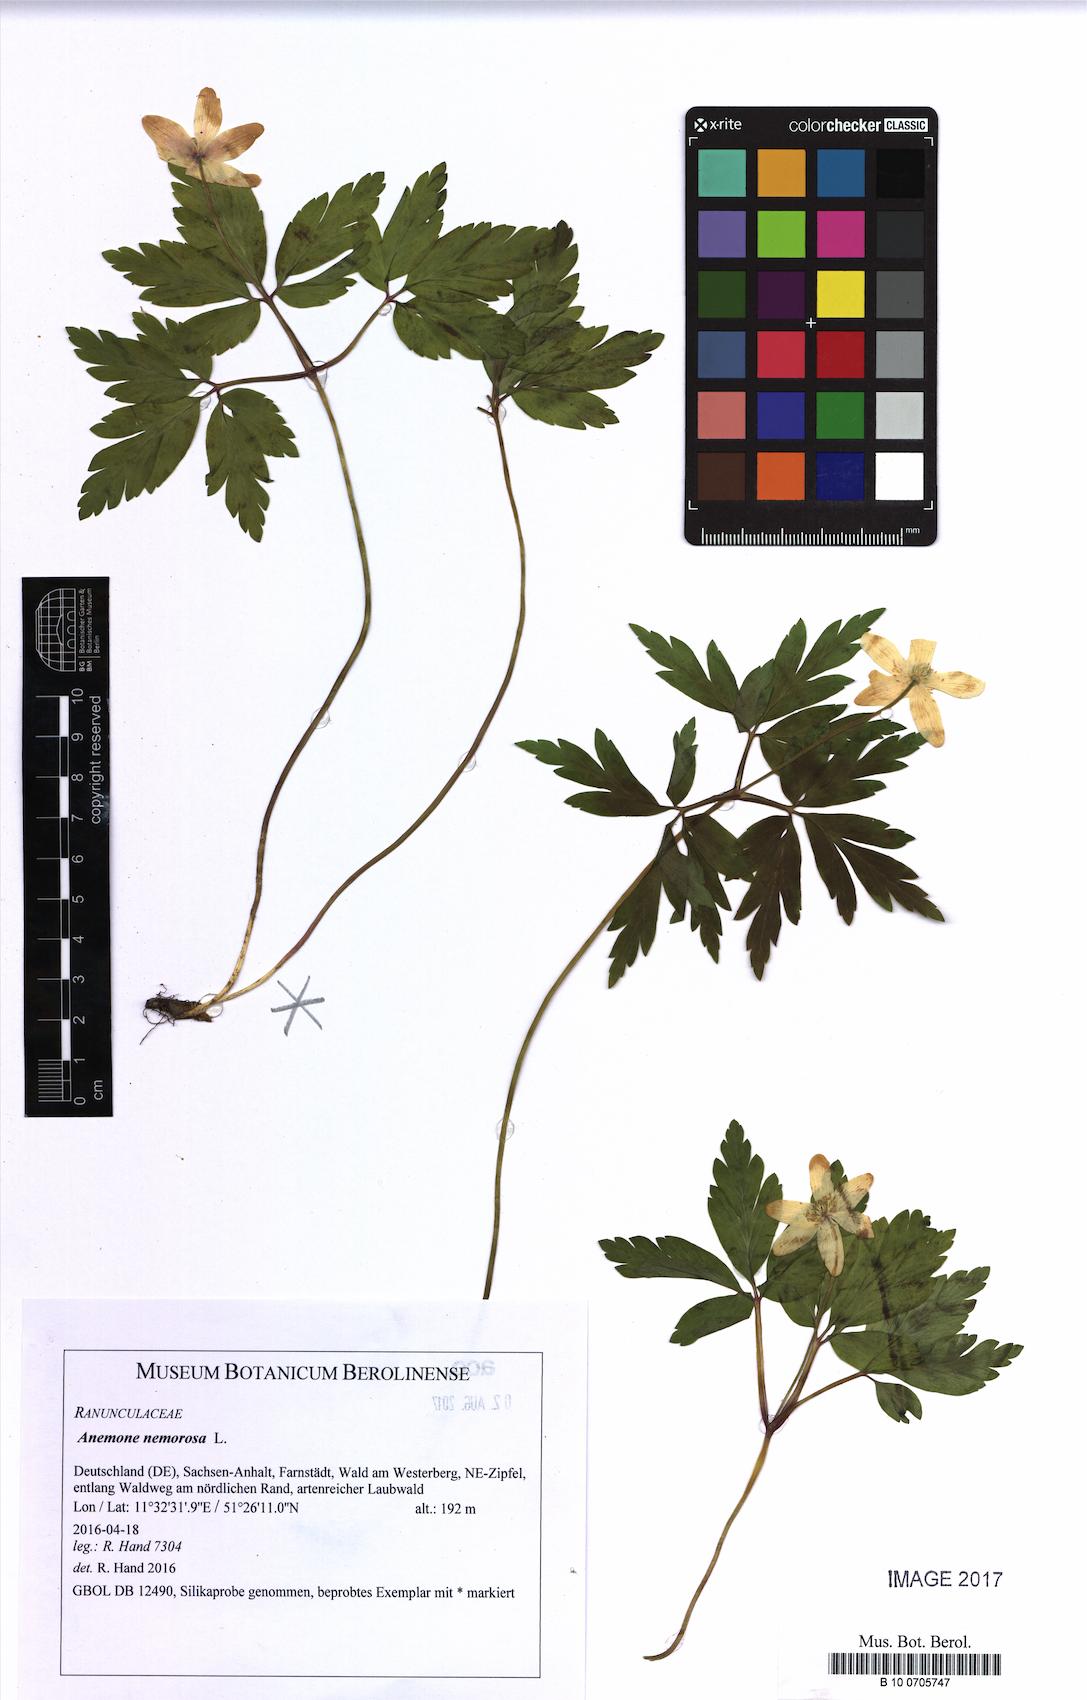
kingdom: Plantae
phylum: Tracheophyta
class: Magnoliopsida
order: Ranunculales
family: Ranunculaceae
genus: Anemone
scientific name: Anemone nemorosa
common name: Wood anemone
